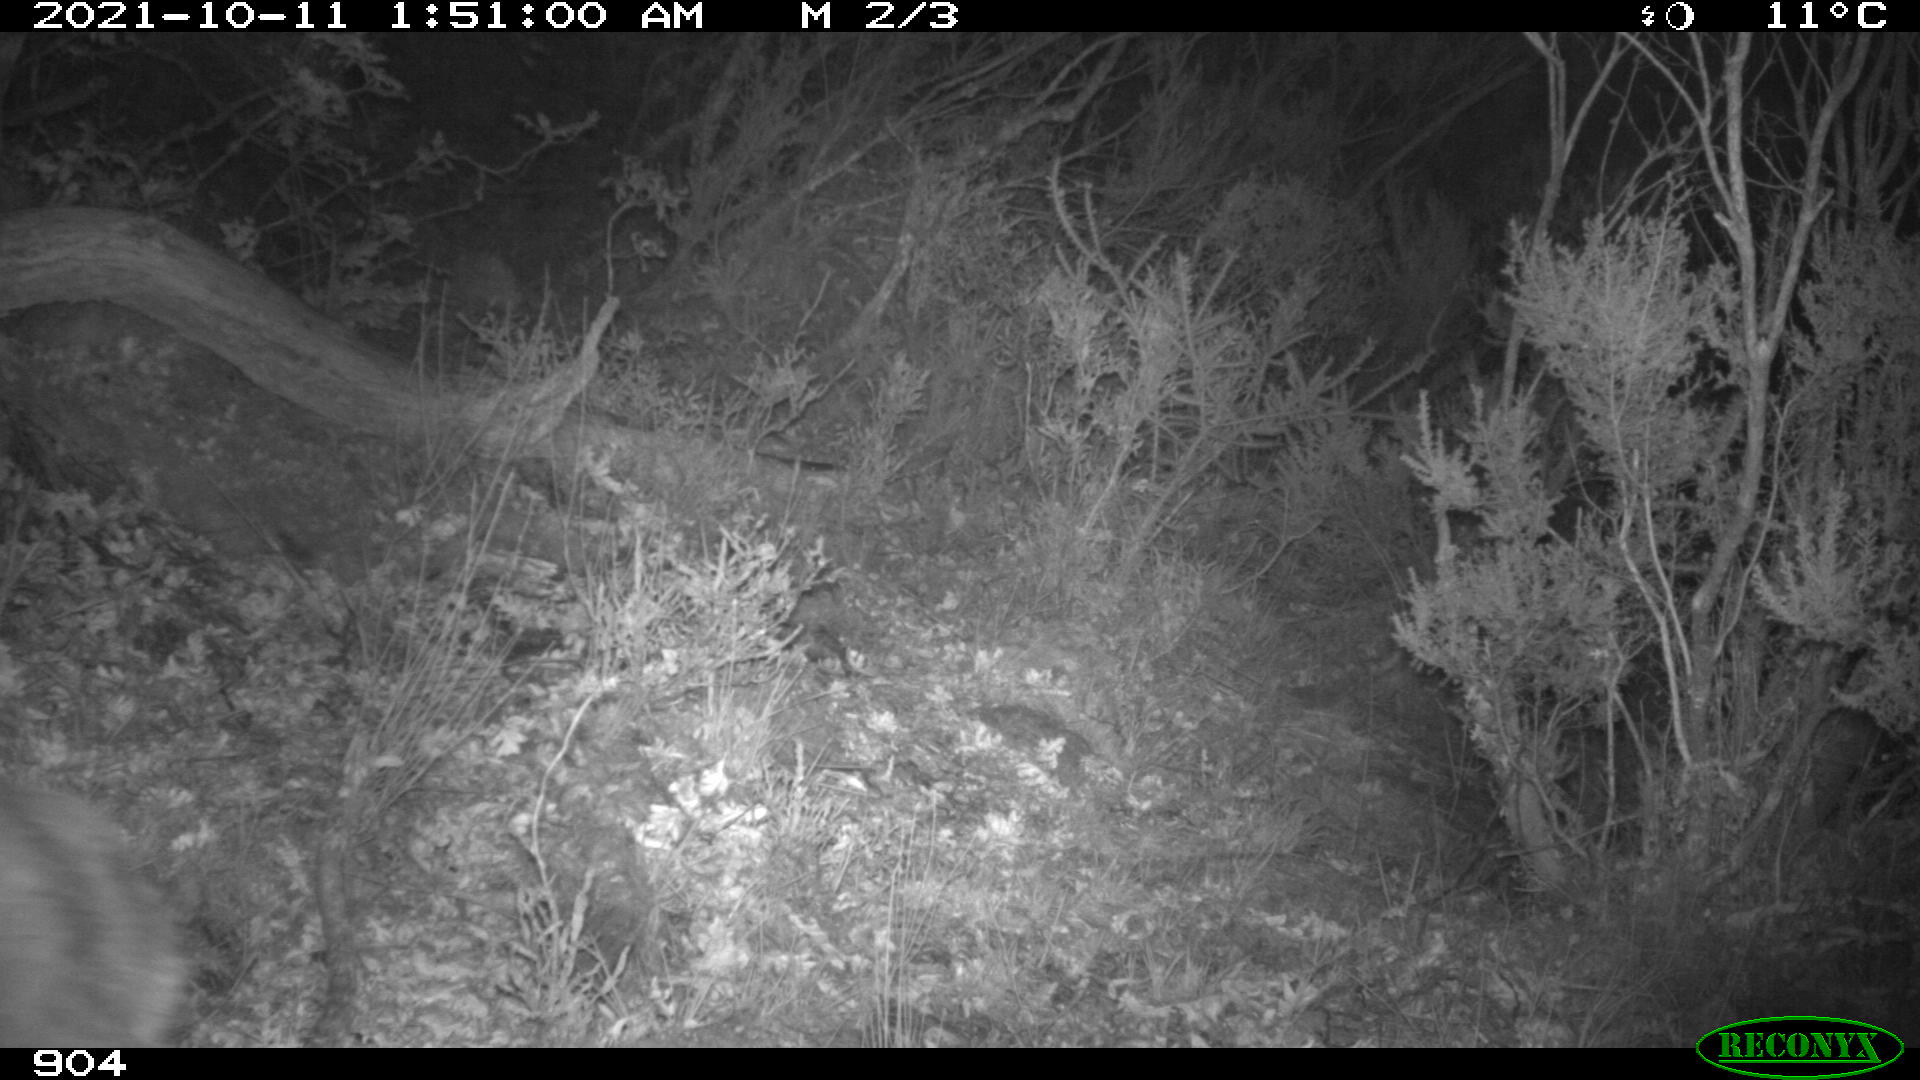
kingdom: Animalia
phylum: Chordata
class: Mammalia
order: Artiodactyla
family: Cervidae
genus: Capreolus
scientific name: Capreolus capreolus
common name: Western roe deer
